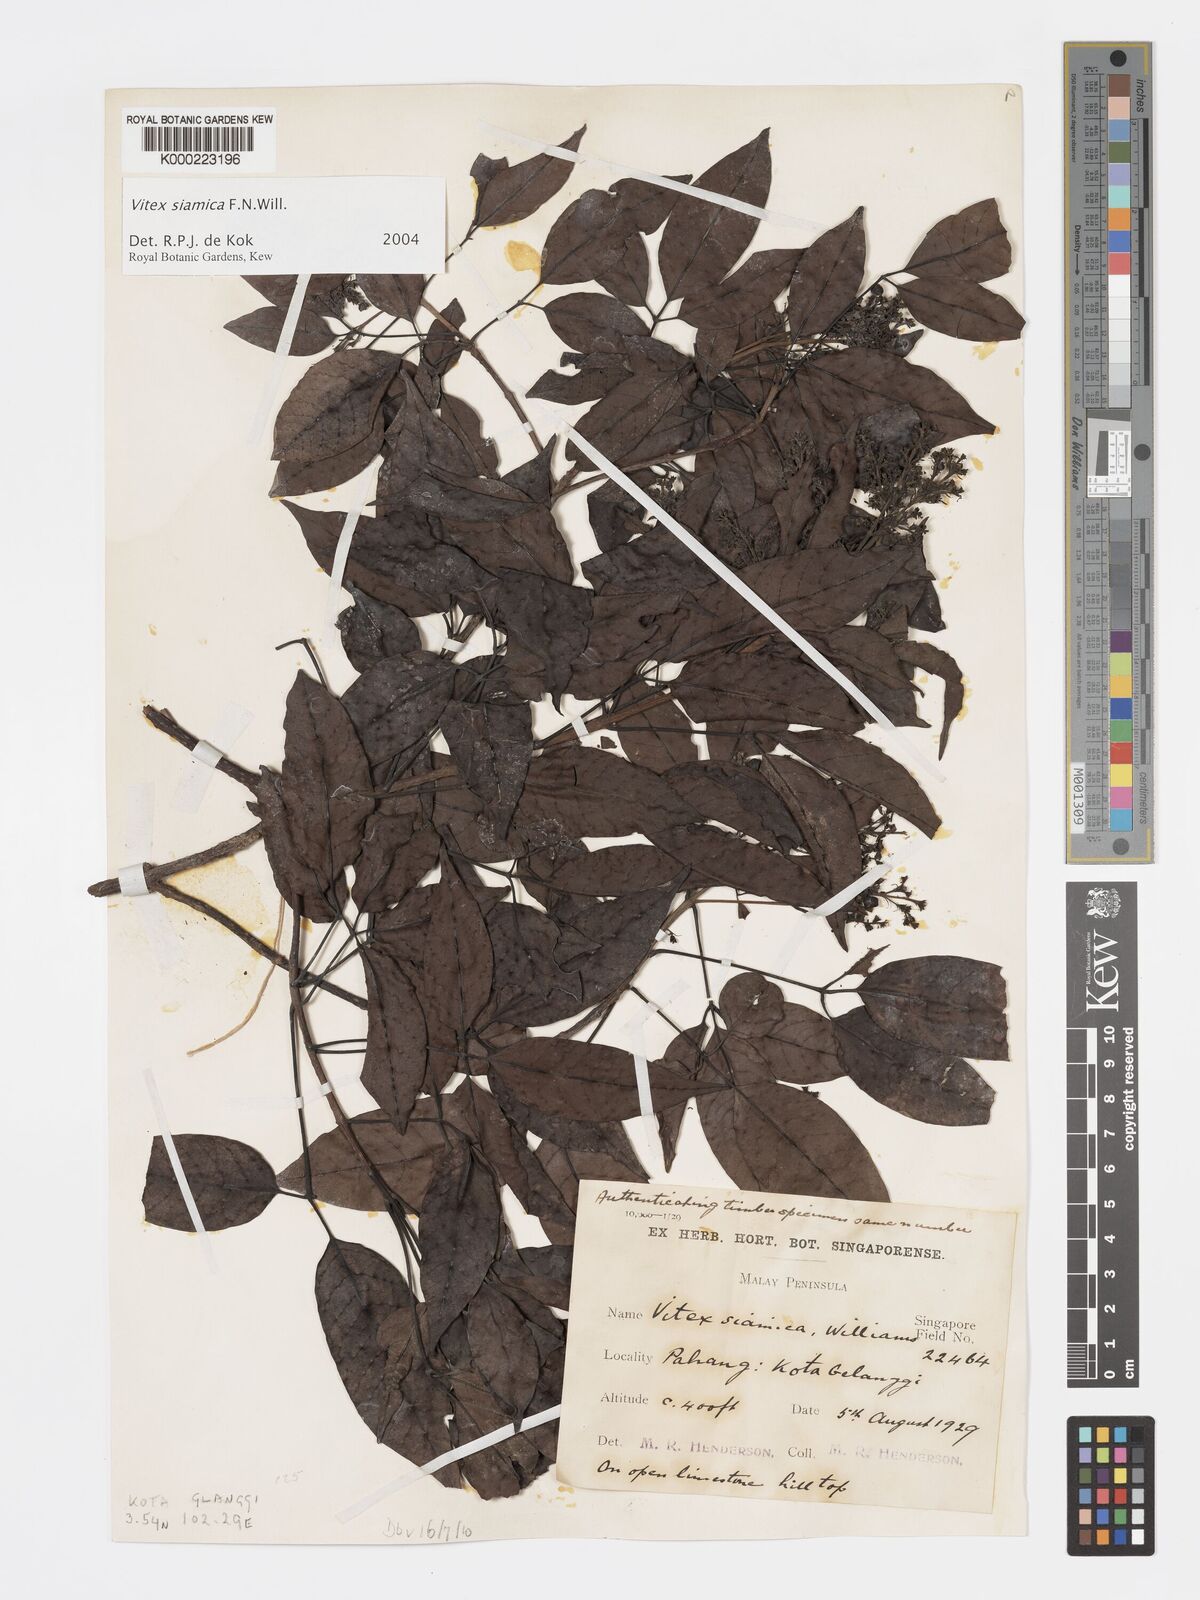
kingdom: Plantae
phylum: Tracheophyta
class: Magnoliopsida
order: Lamiales
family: Lamiaceae
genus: Vitex
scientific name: Vitex siamica
